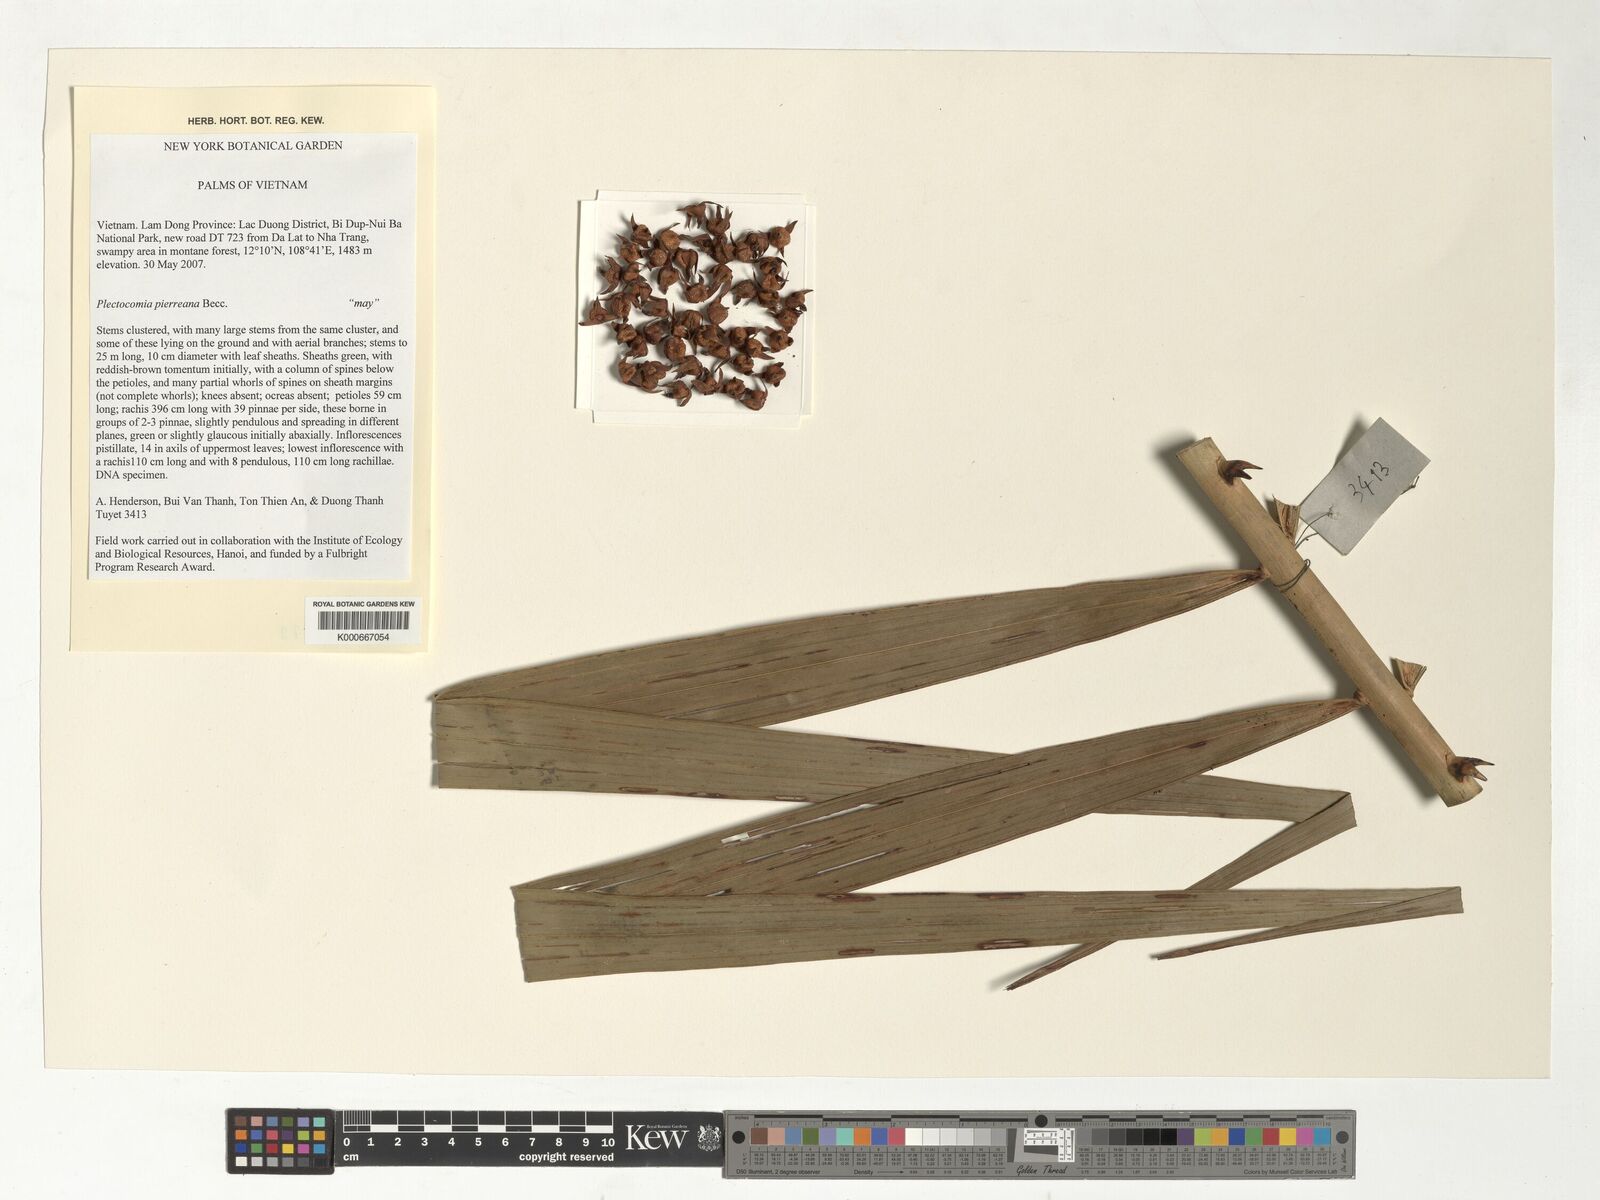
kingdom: Plantae
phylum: Tracheophyta
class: Liliopsida
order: Arecales
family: Arecaceae
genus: Plectocomia
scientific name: Plectocomia pierreana
